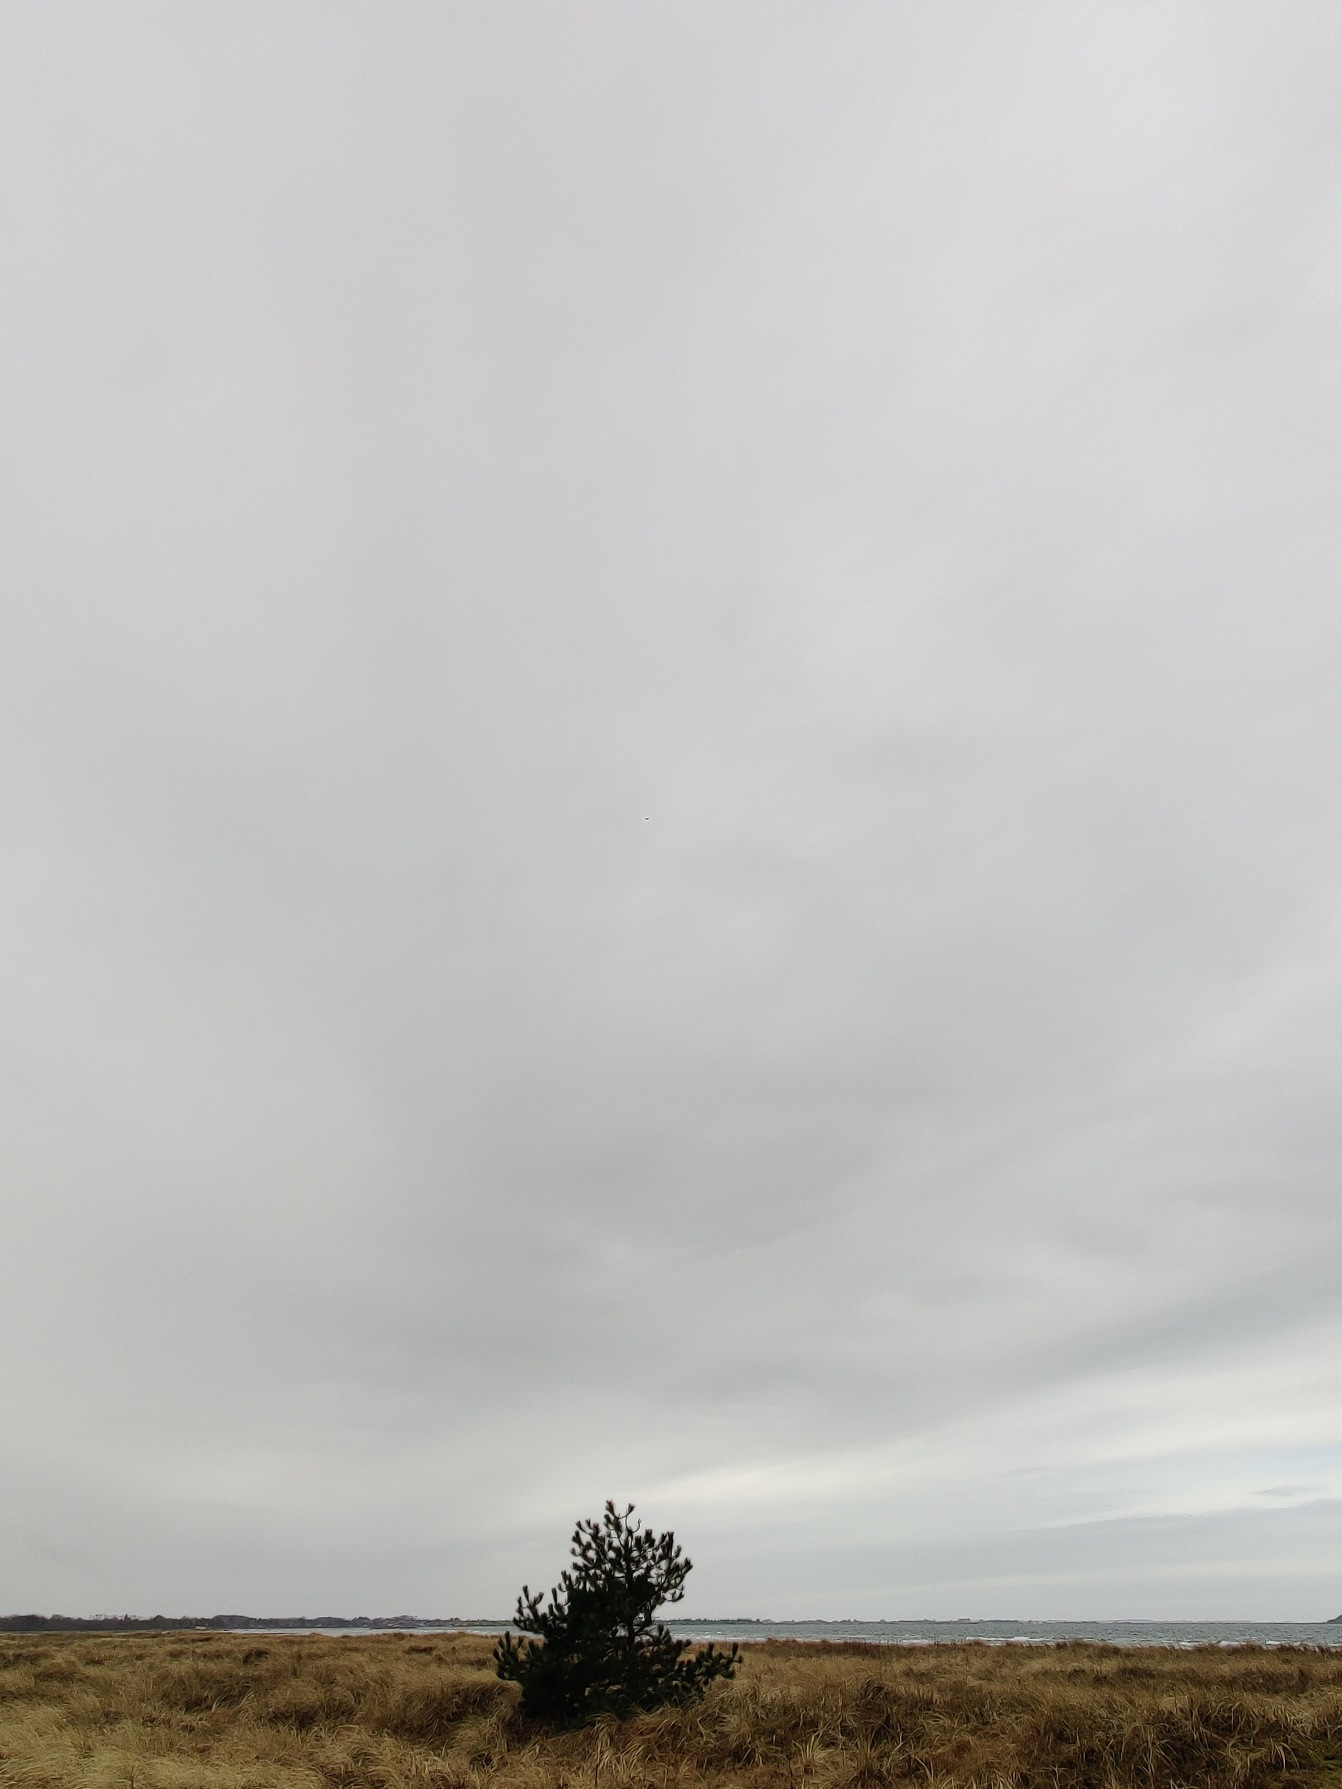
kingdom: Animalia
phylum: Chordata
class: Aves
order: Passeriformes
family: Alaudidae
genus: Alauda
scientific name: Alauda arvensis
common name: Sanglærke
